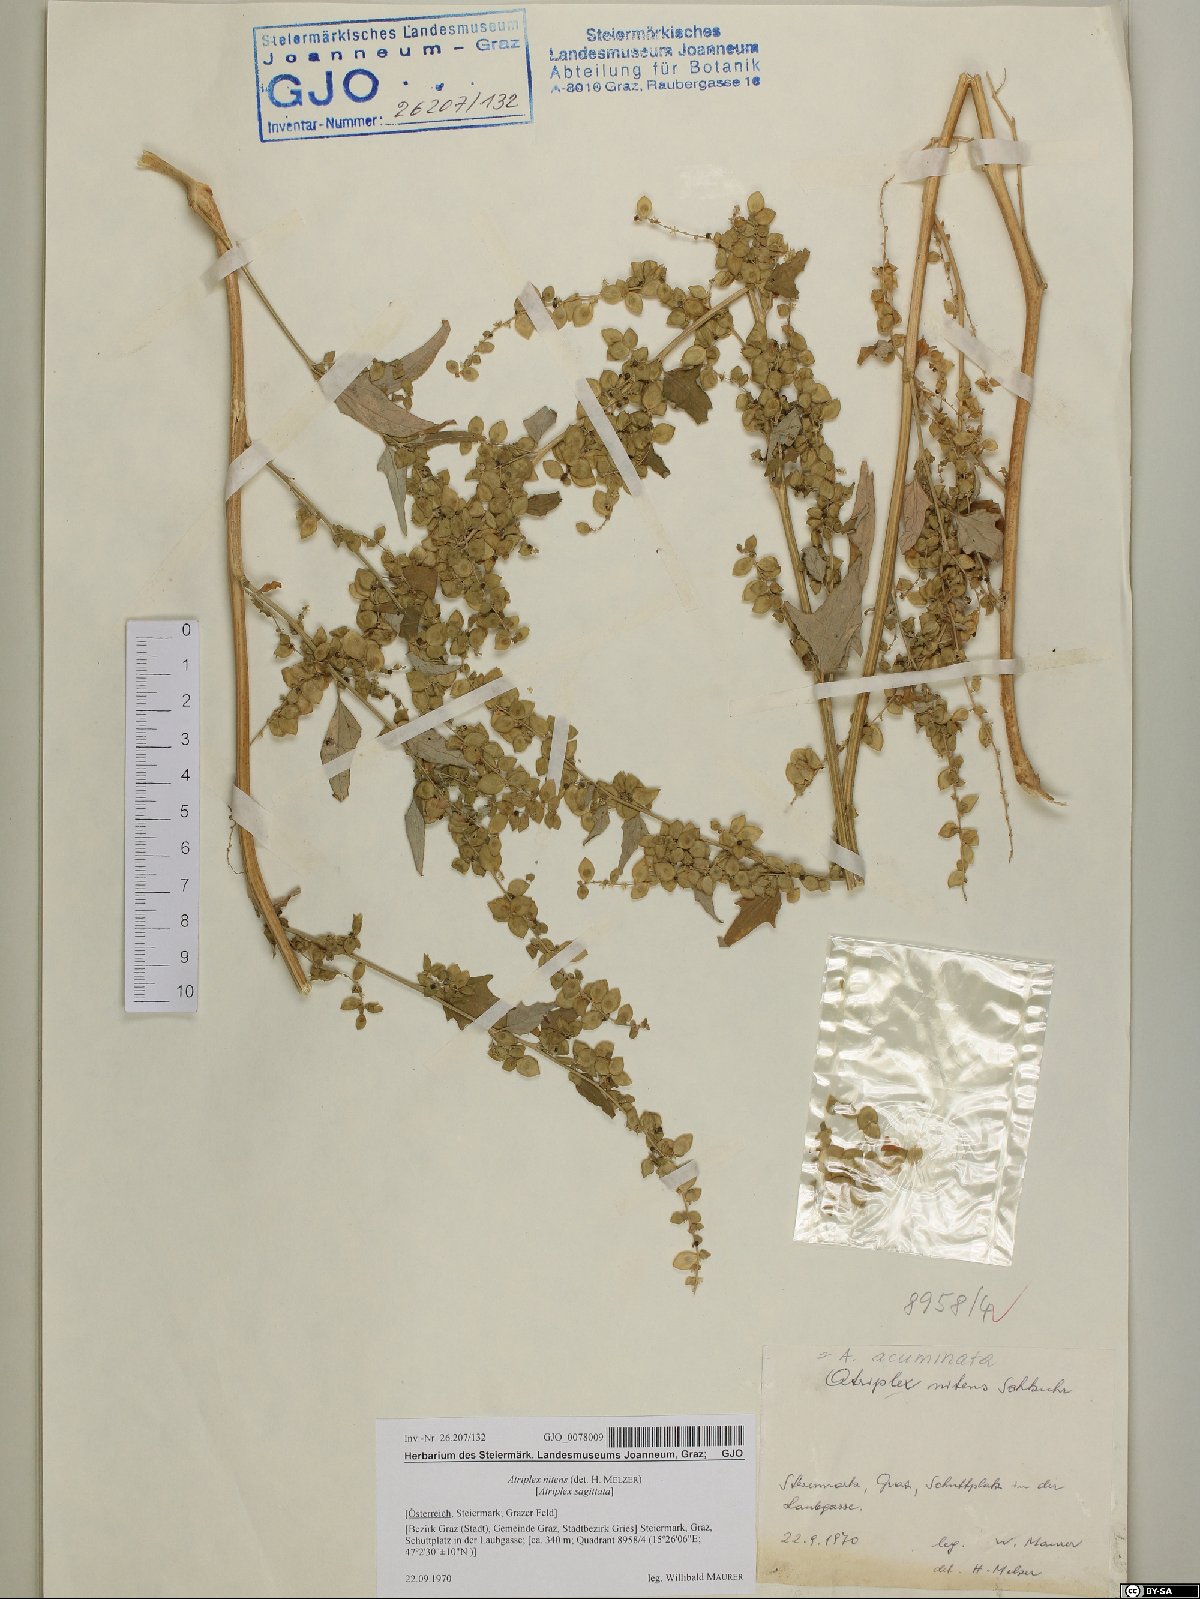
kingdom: Plantae
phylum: Tracheophyta
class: Magnoliopsida
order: Caryophyllales
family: Amaranthaceae
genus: Atriplex
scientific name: Atriplex sagittata
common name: Purple orache
